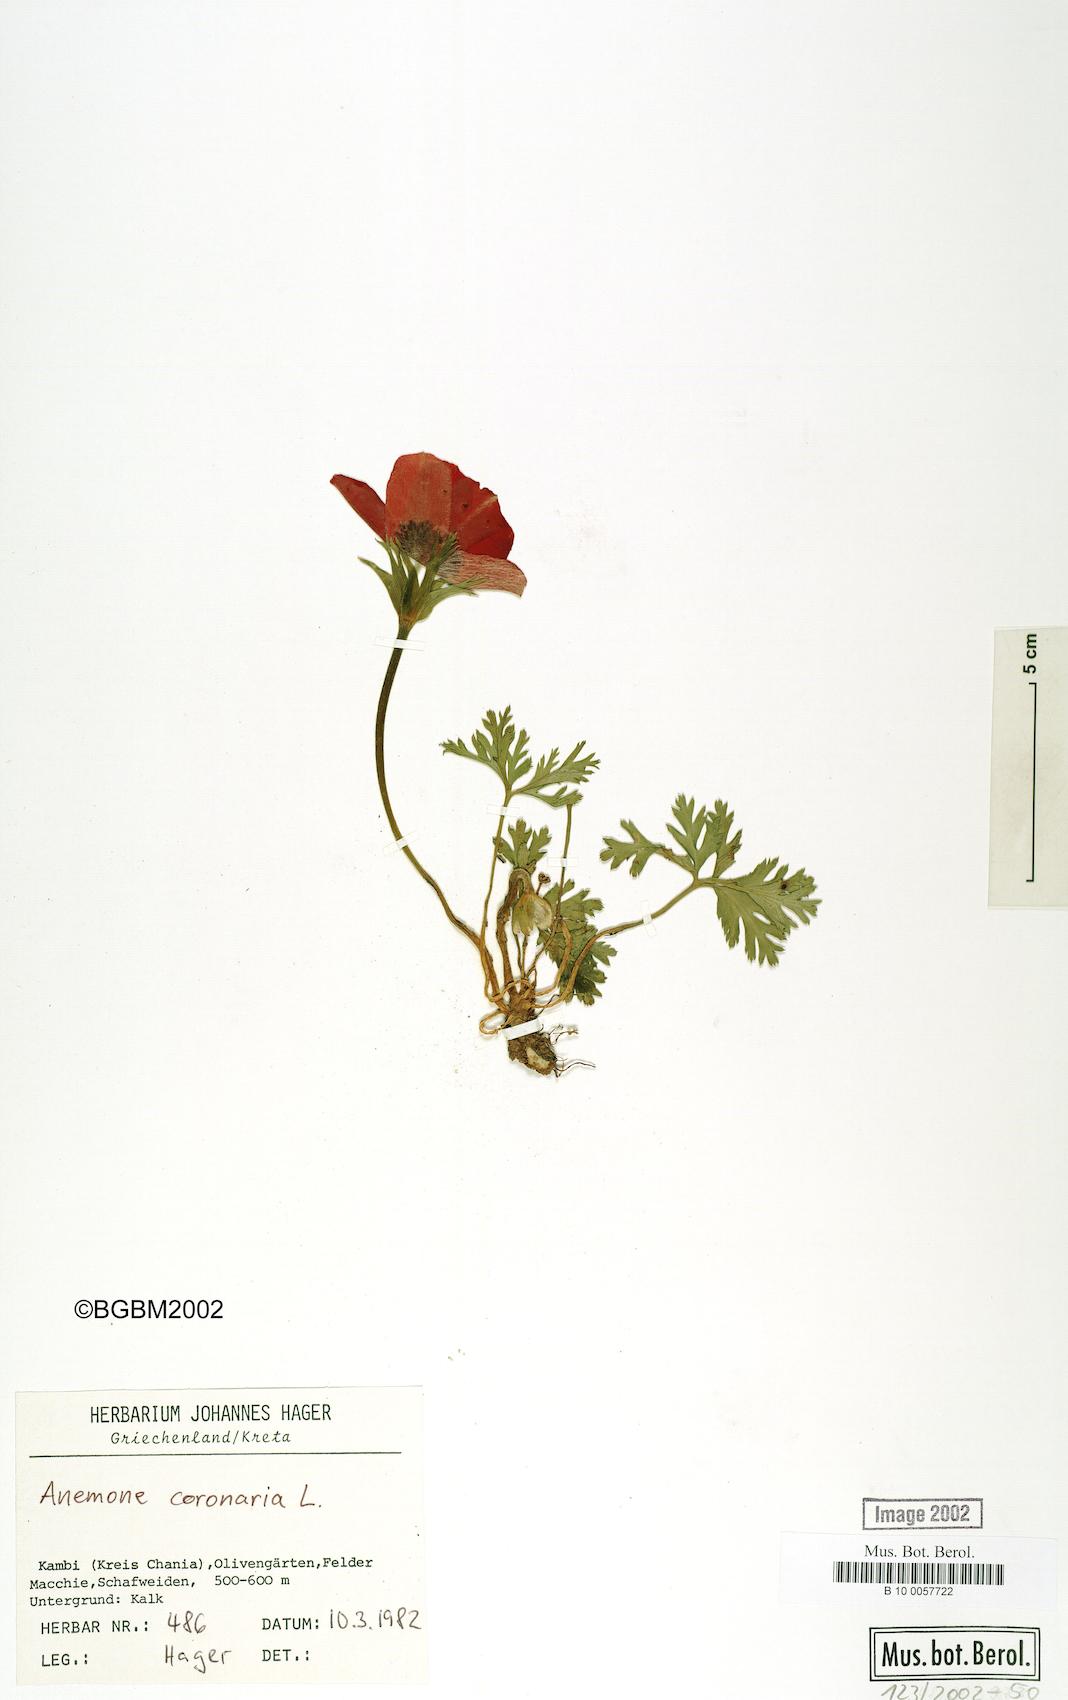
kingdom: Plantae
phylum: Tracheophyta
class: Magnoliopsida
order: Ranunculales
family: Ranunculaceae
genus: Anemone
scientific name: Anemone coronaria
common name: Poppy anemone
